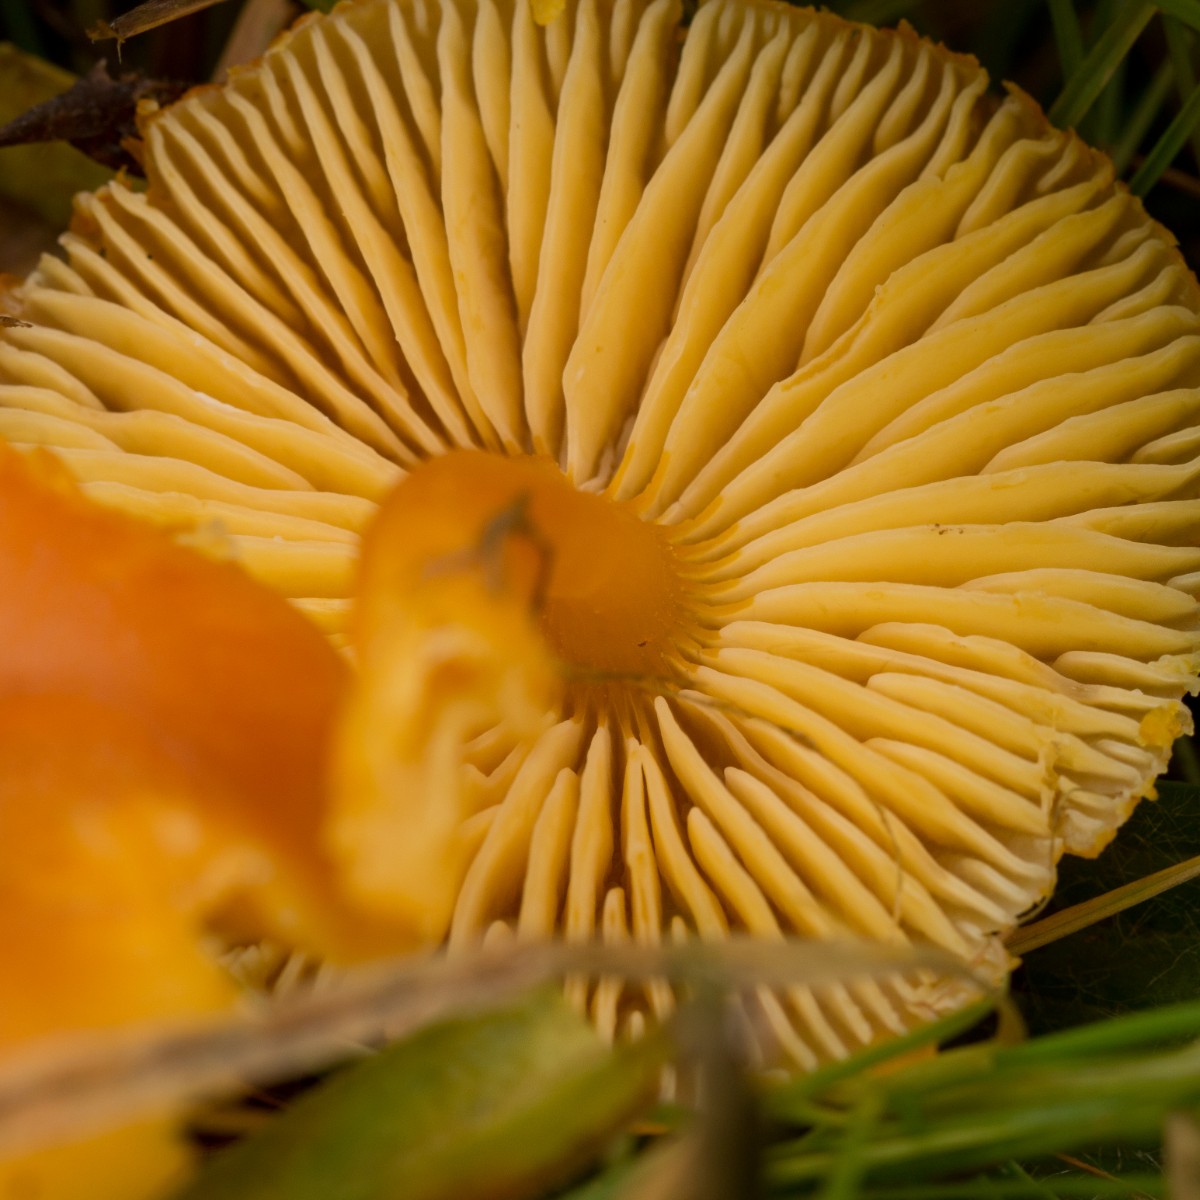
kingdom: Fungi
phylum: Basidiomycota
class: Agaricomycetes
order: Agaricales
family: Hygrophoraceae
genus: Hygrocybe
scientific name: Hygrocybe miniata
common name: mønje-vokshat
